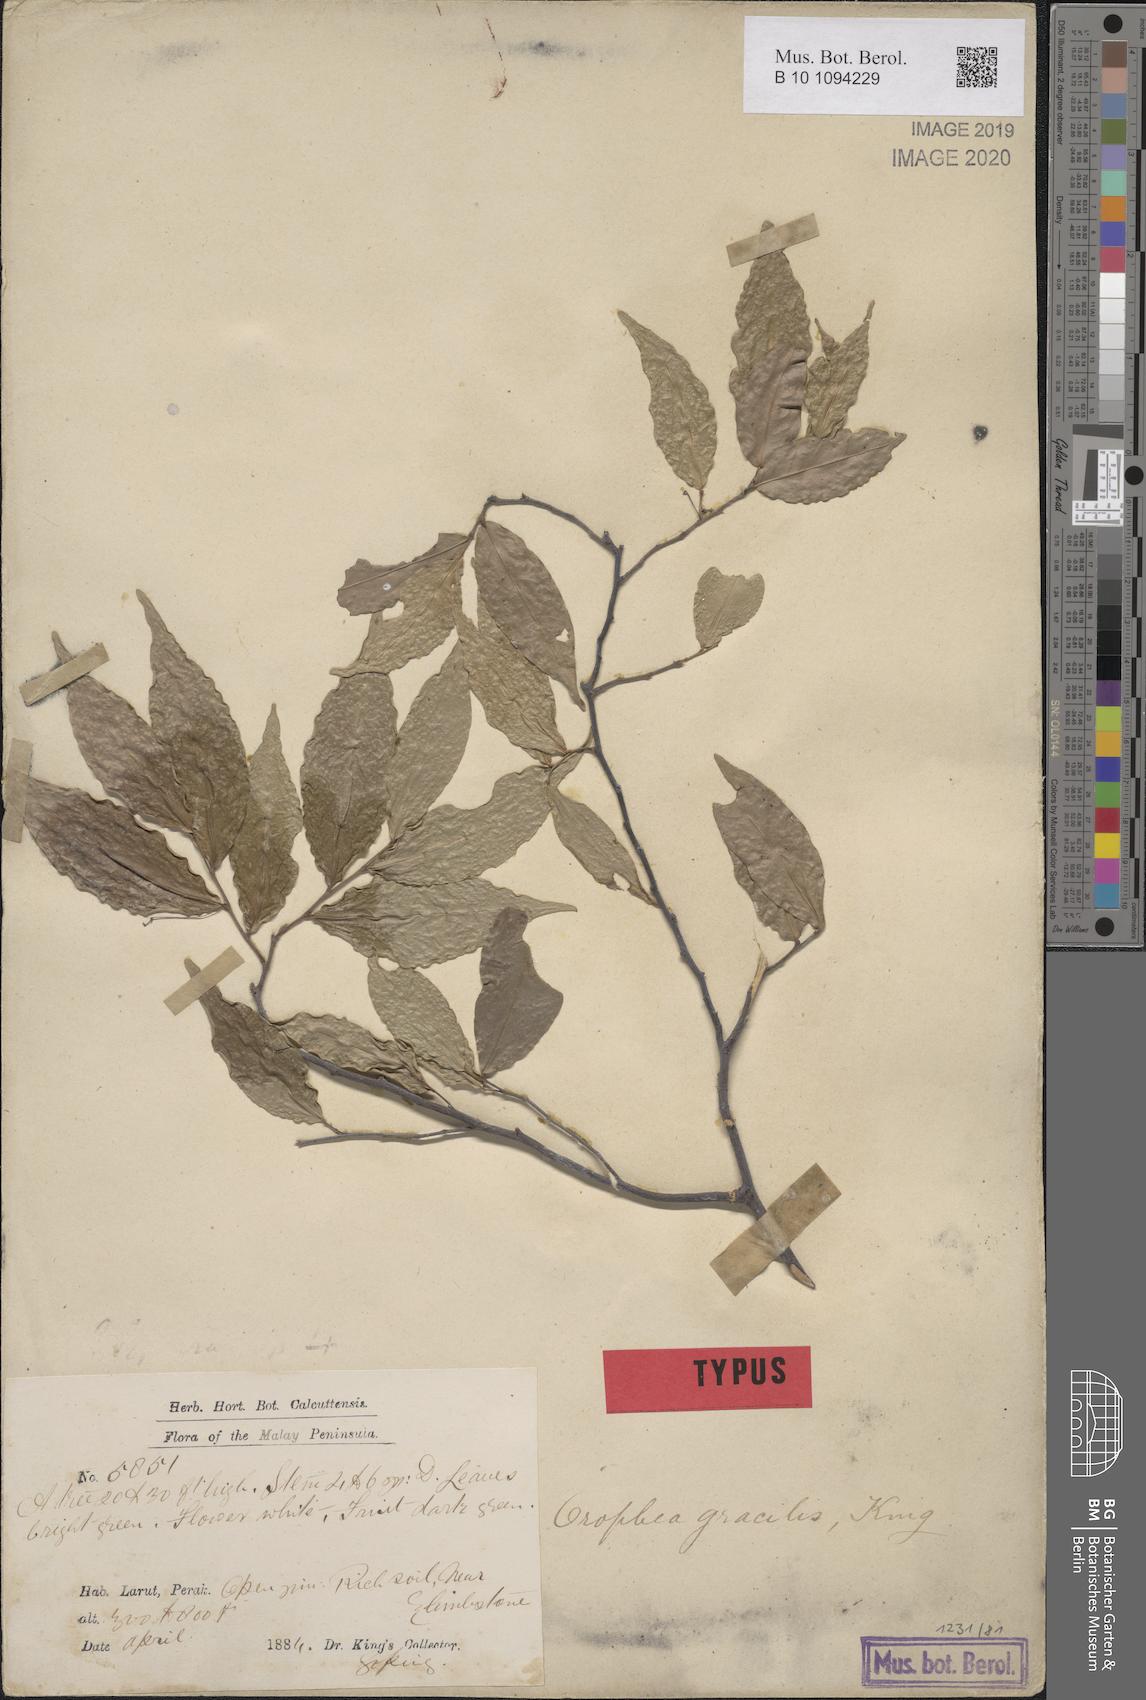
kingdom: Plantae
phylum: Tracheophyta
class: Magnoliopsida
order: Magnoliales
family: Annonaceae
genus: Orophea
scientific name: Orophea polycarpa
